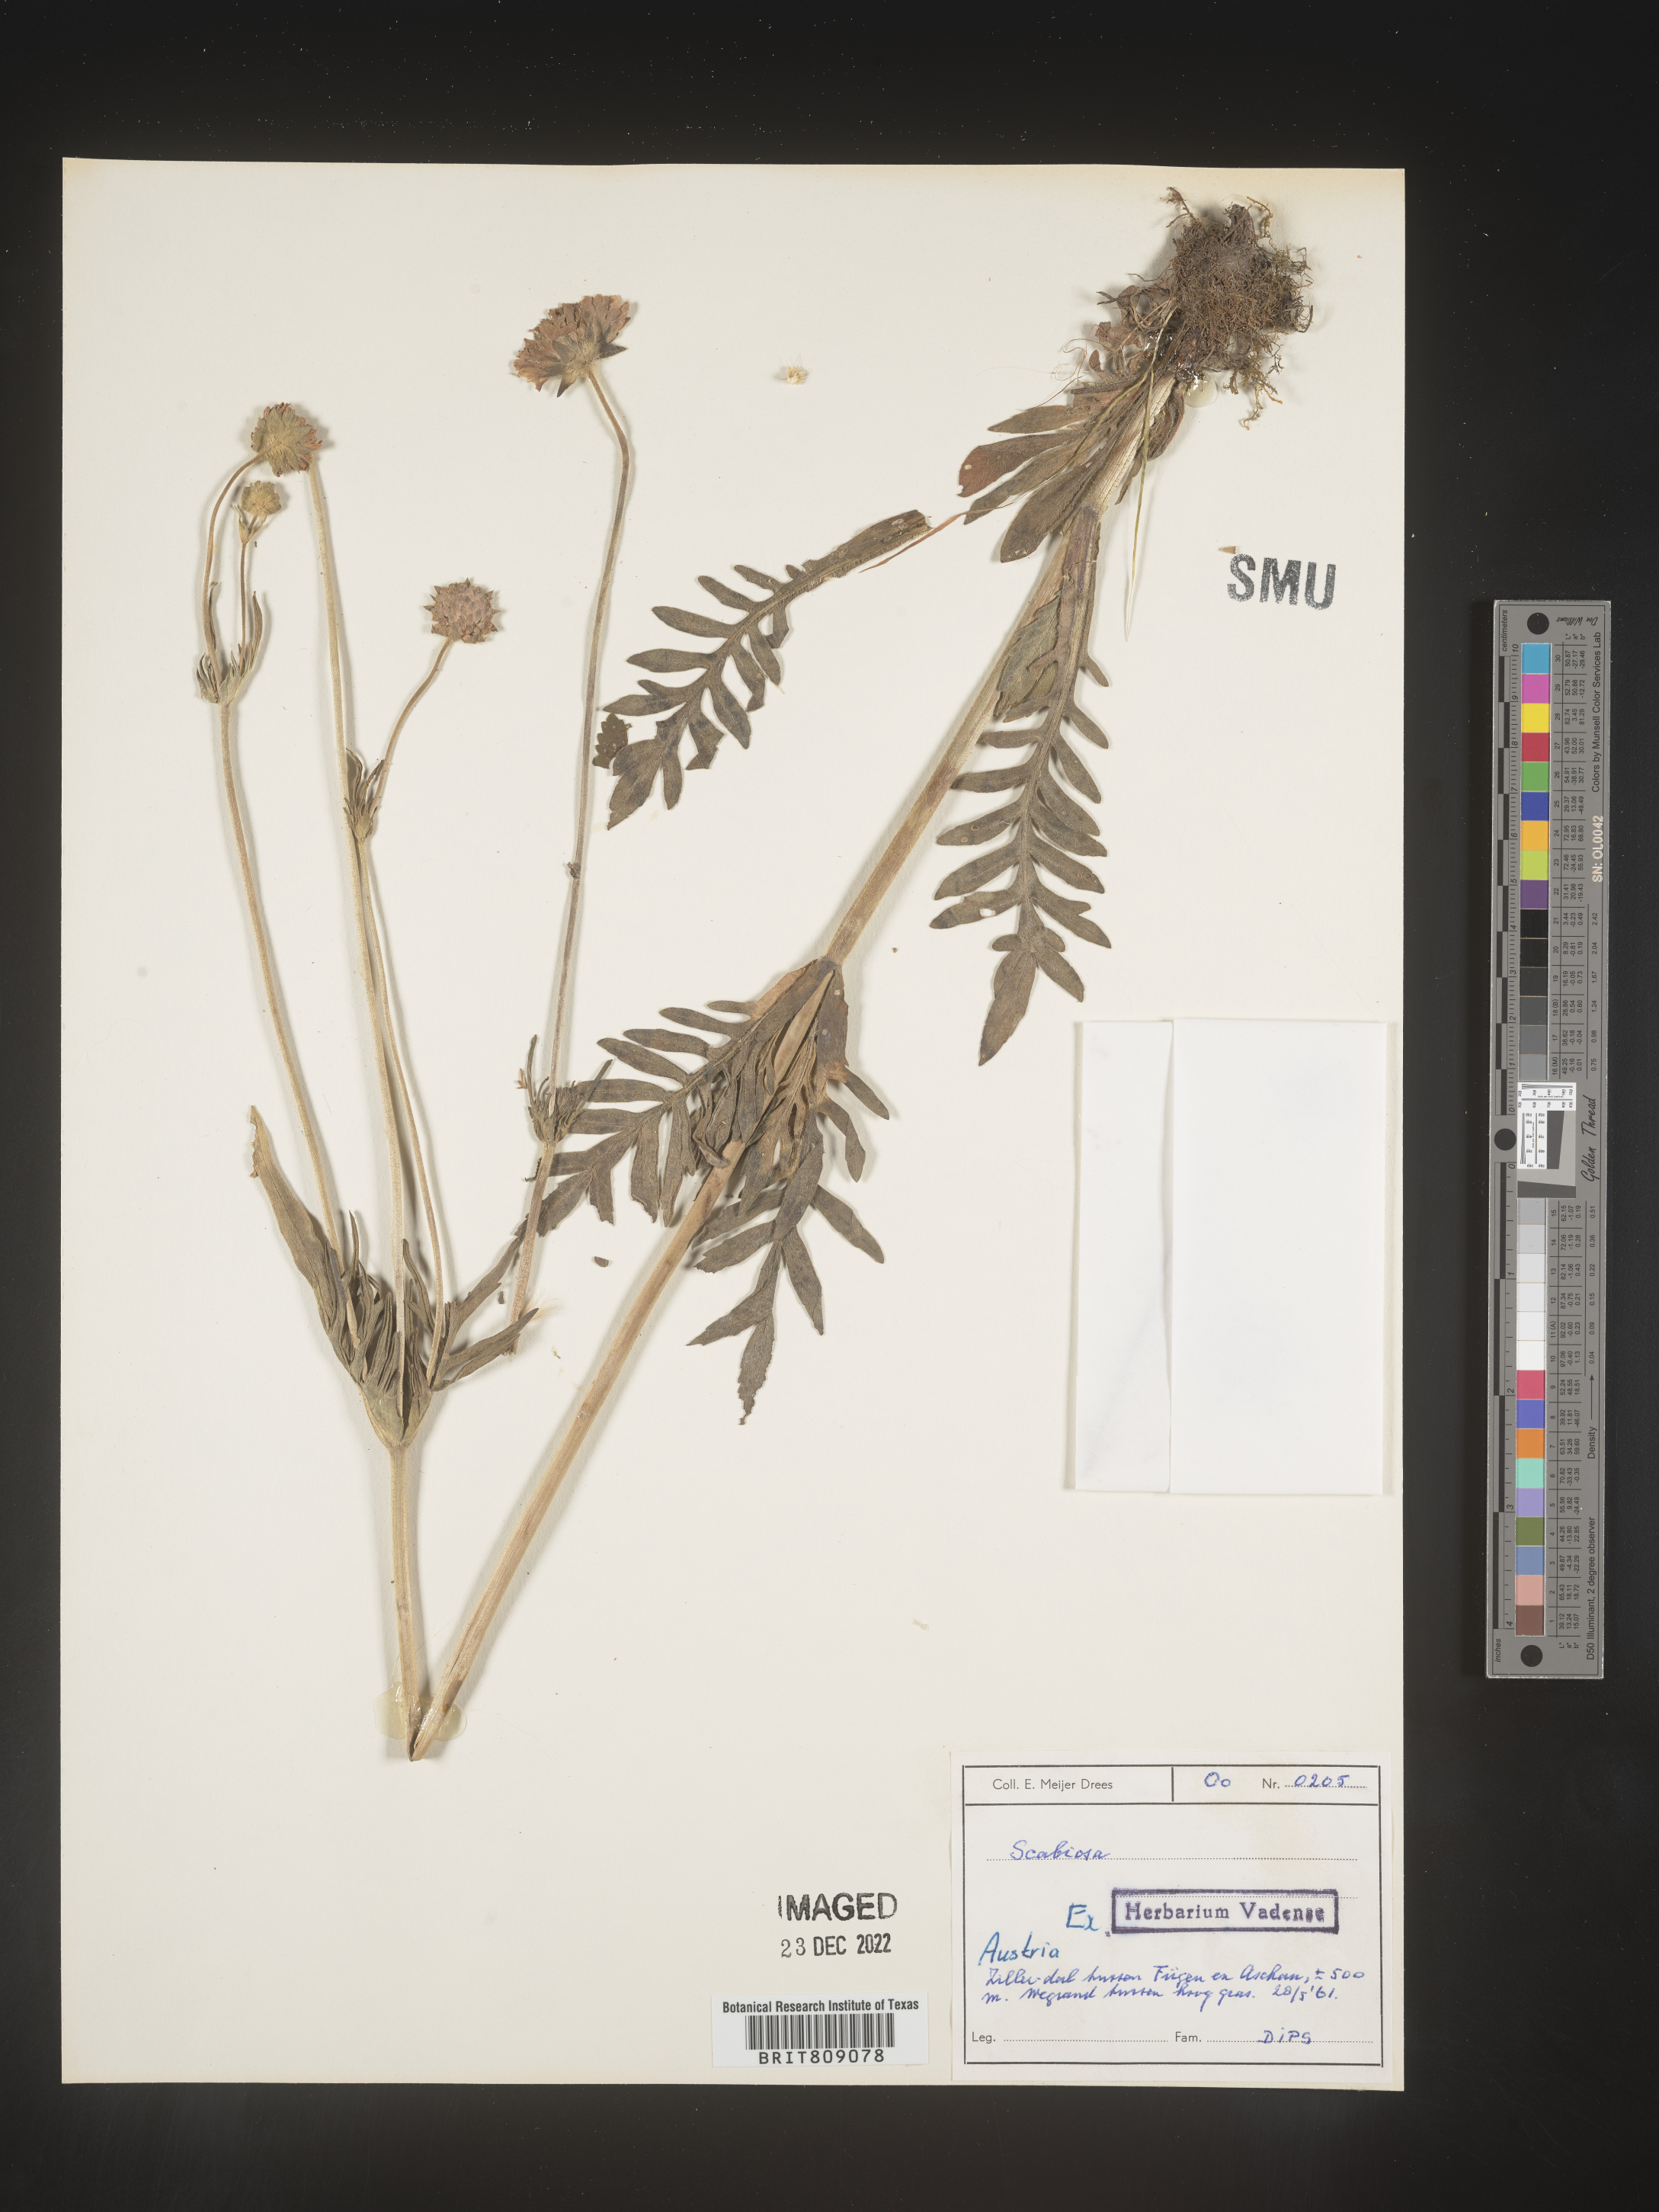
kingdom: Plantae
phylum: Tracheophyta
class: Magnoliopsida
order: Dipsacales
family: Caprifoliaceae
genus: Scabiosa
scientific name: Scabiosa
